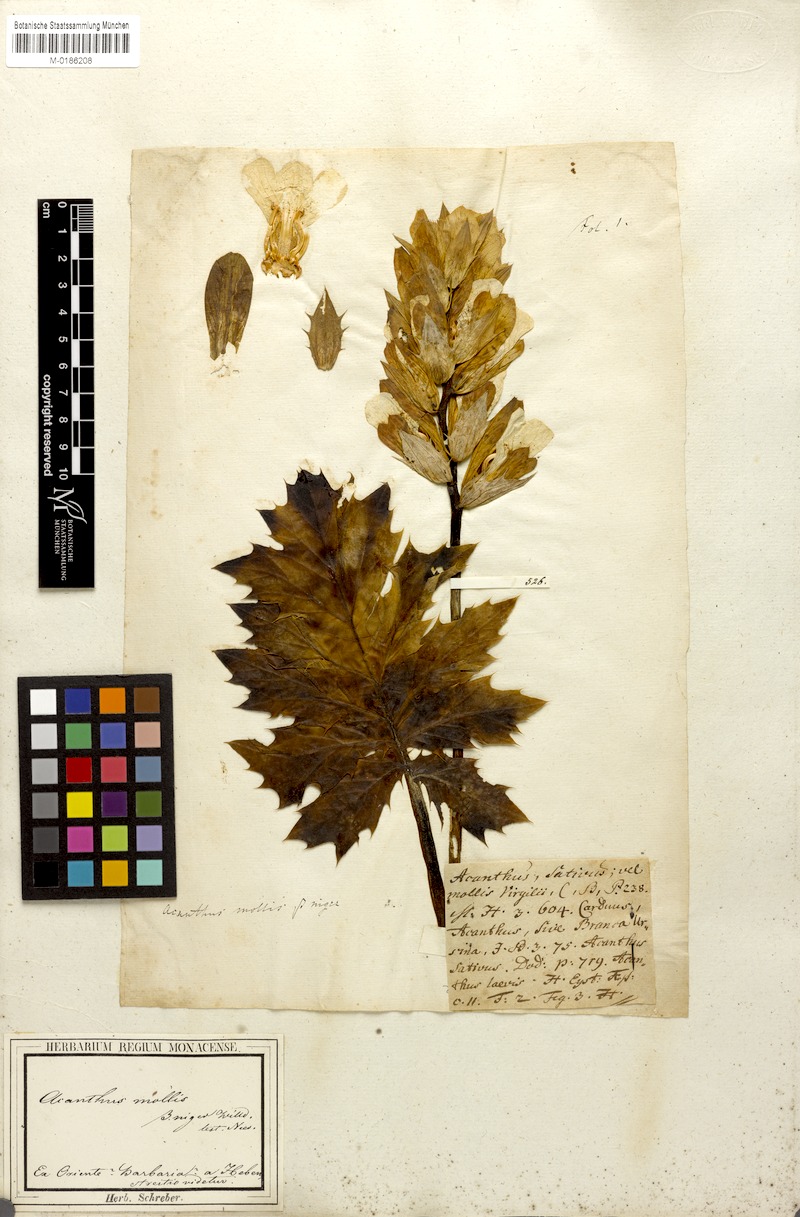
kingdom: Plantae
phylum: Tracheophyta
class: Magnoliopsida
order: Lamiales
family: Acanthaceae
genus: Acanthus
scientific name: Acanthus mollis
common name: Bear's-breech
